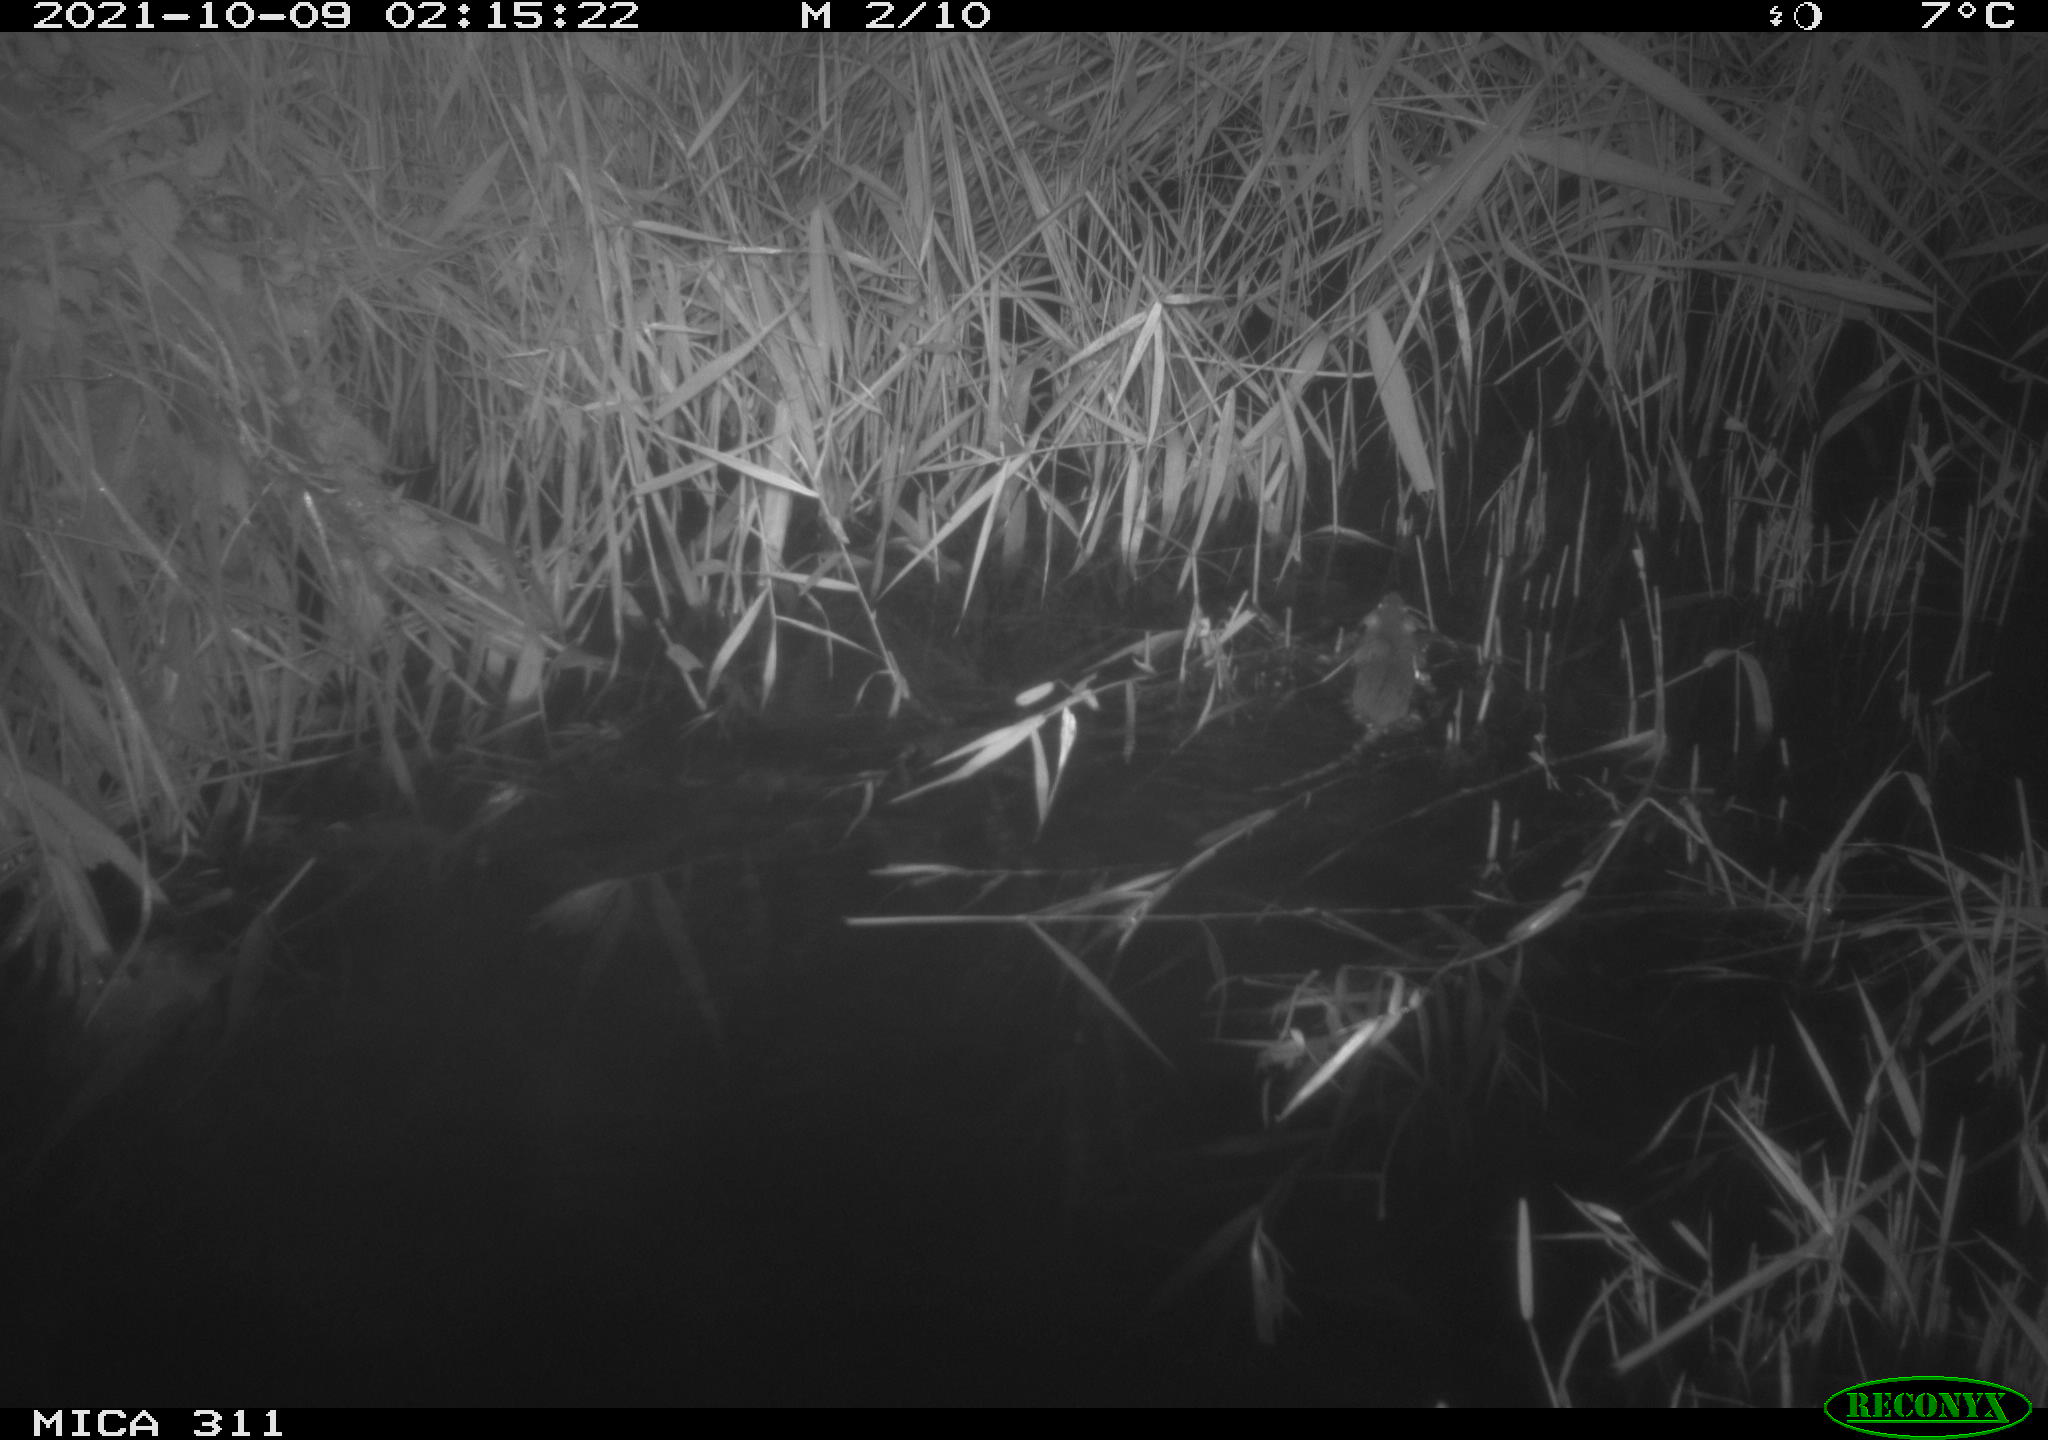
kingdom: Animalia
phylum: Chordata
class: Mammalia
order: Rodentia
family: Muridae
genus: Rattus
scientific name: Rattus norvegicus
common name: Brown rat
